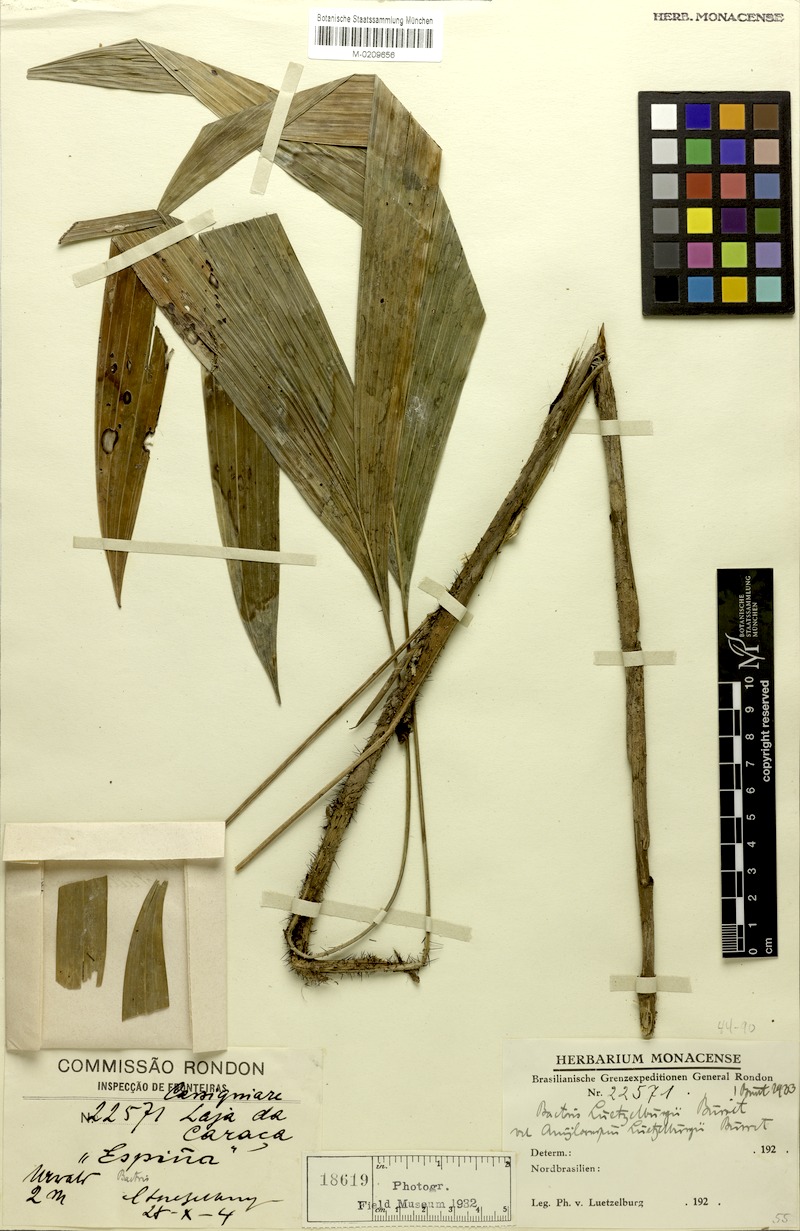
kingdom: Plantae
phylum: Tracheophyta
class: Liliopsida
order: Arecales
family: Arecaceae
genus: Bactris
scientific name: Bactris simplicifrons
